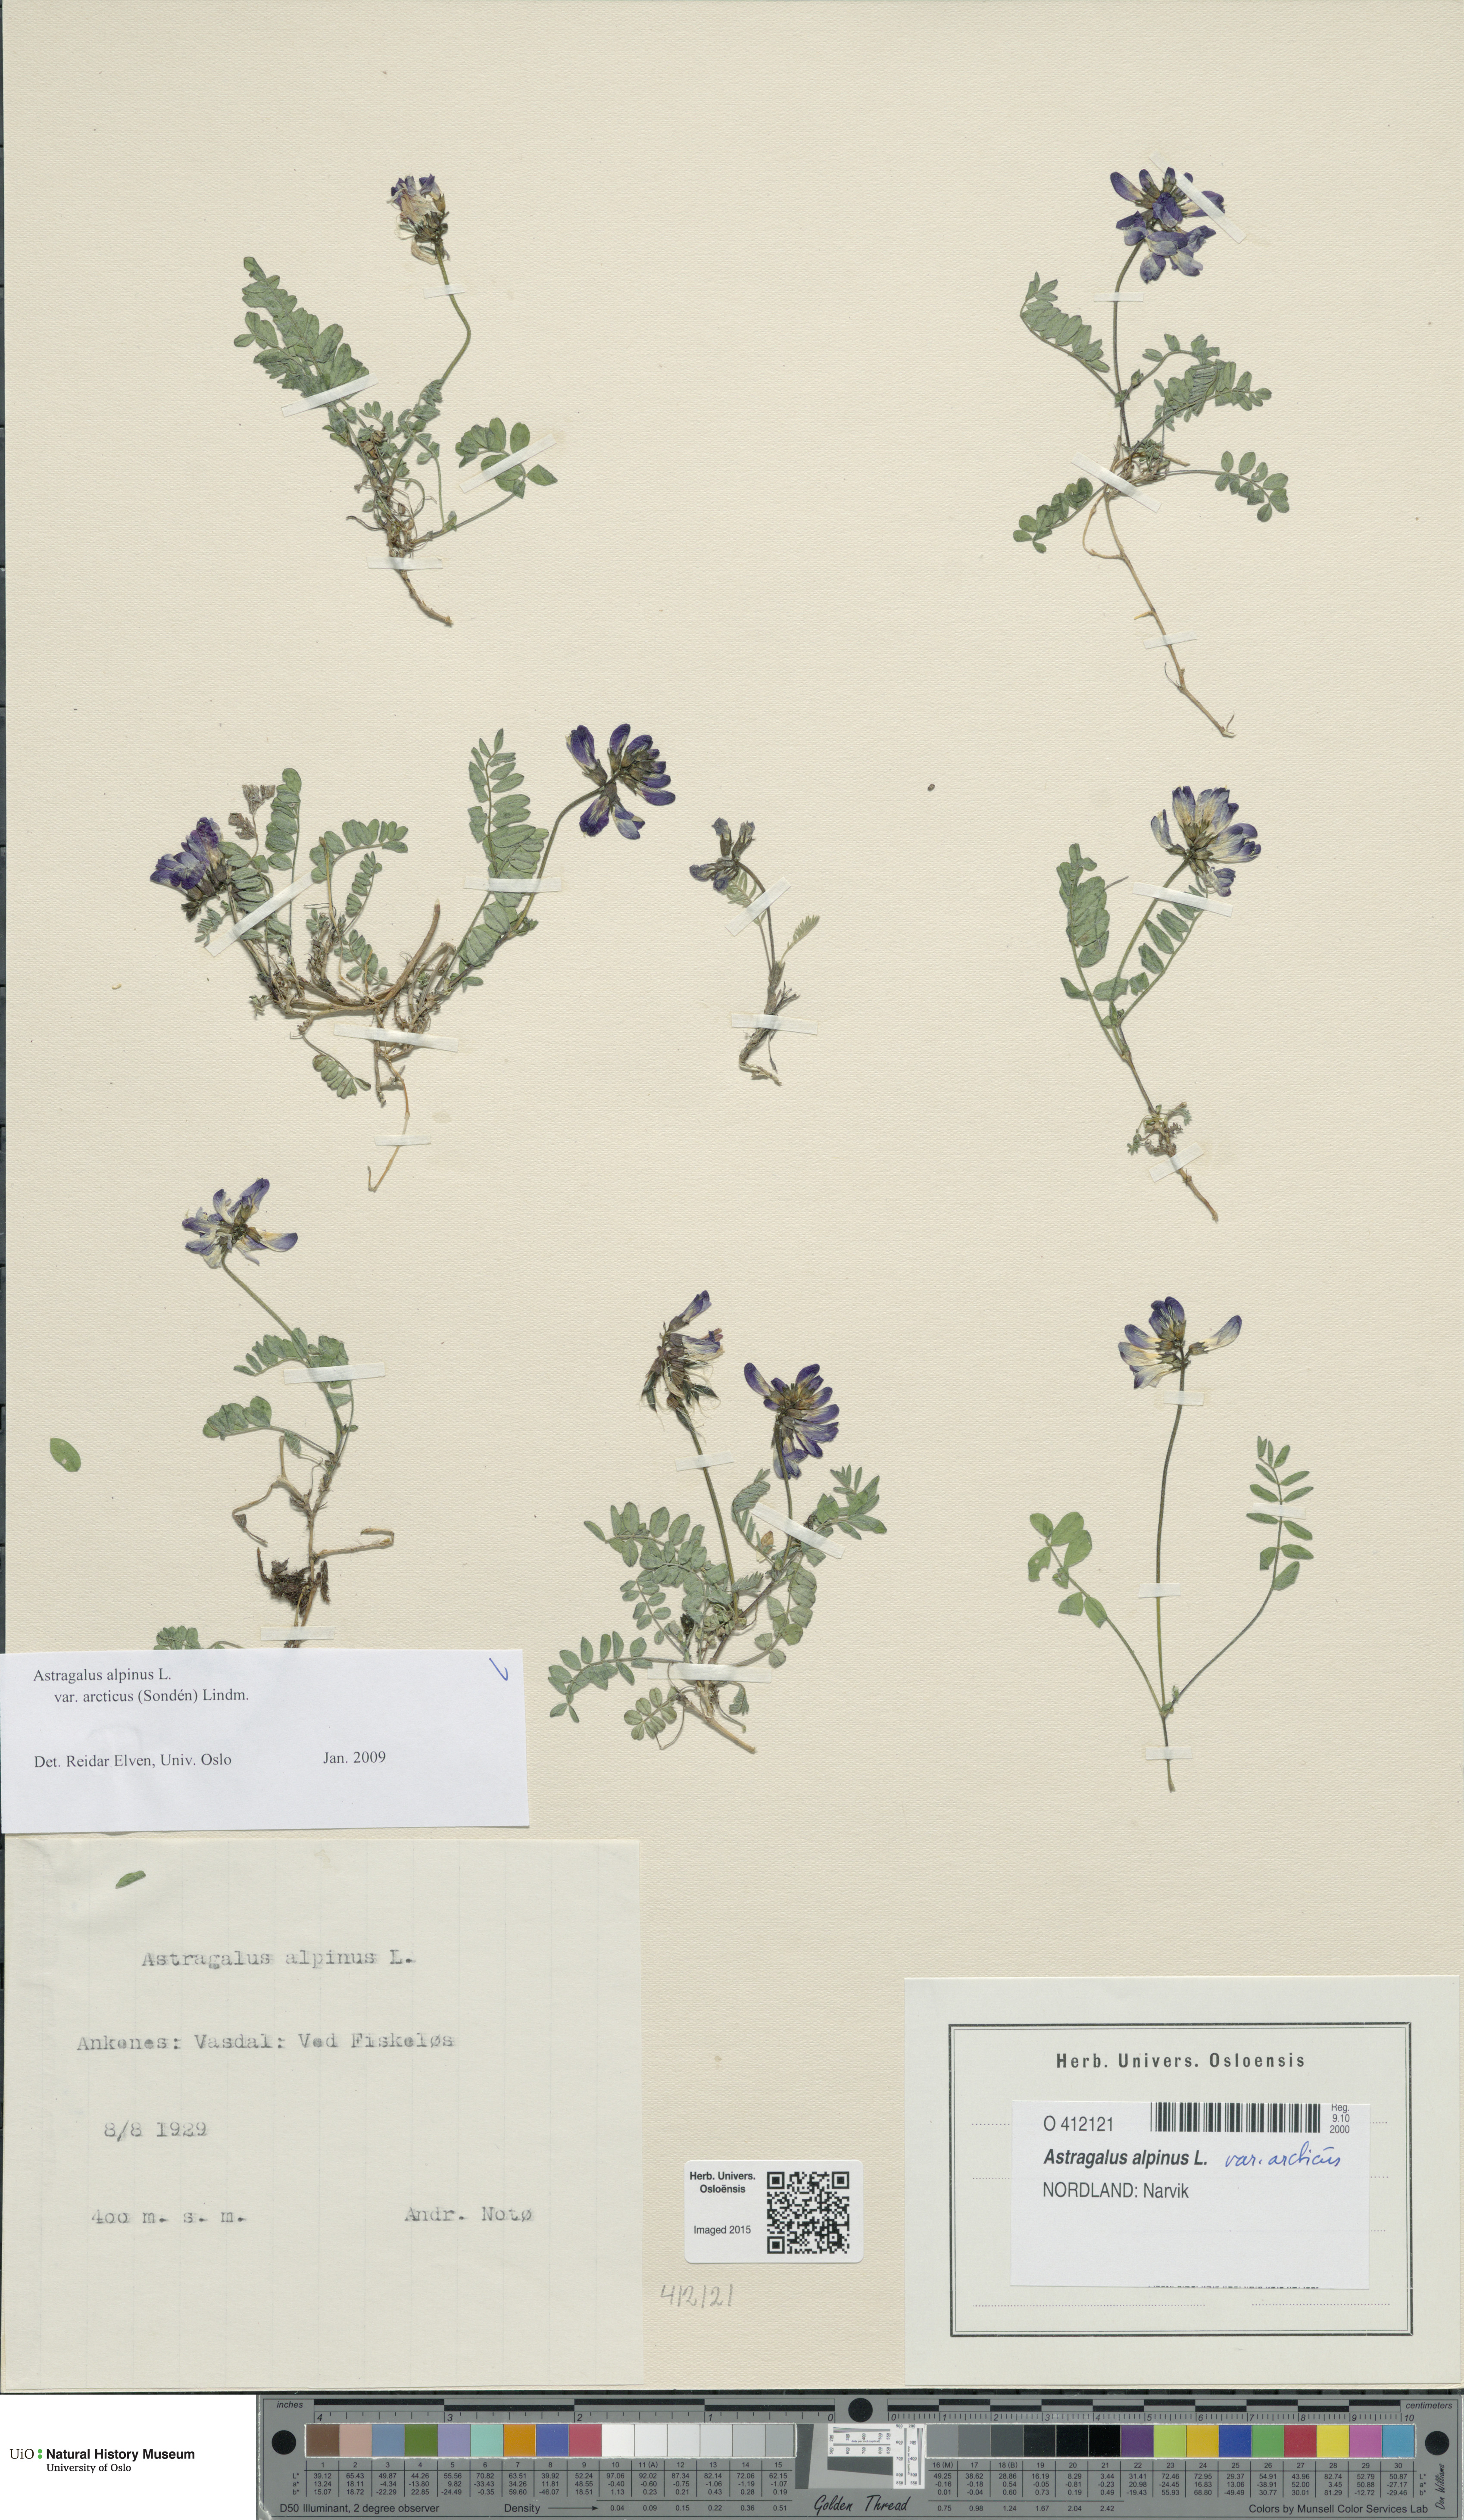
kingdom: Plantae
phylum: Tracheophyta
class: Magnoliopsida
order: Fabales
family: Fabaceae
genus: Astragalus
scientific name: Astragalus norvegicus
